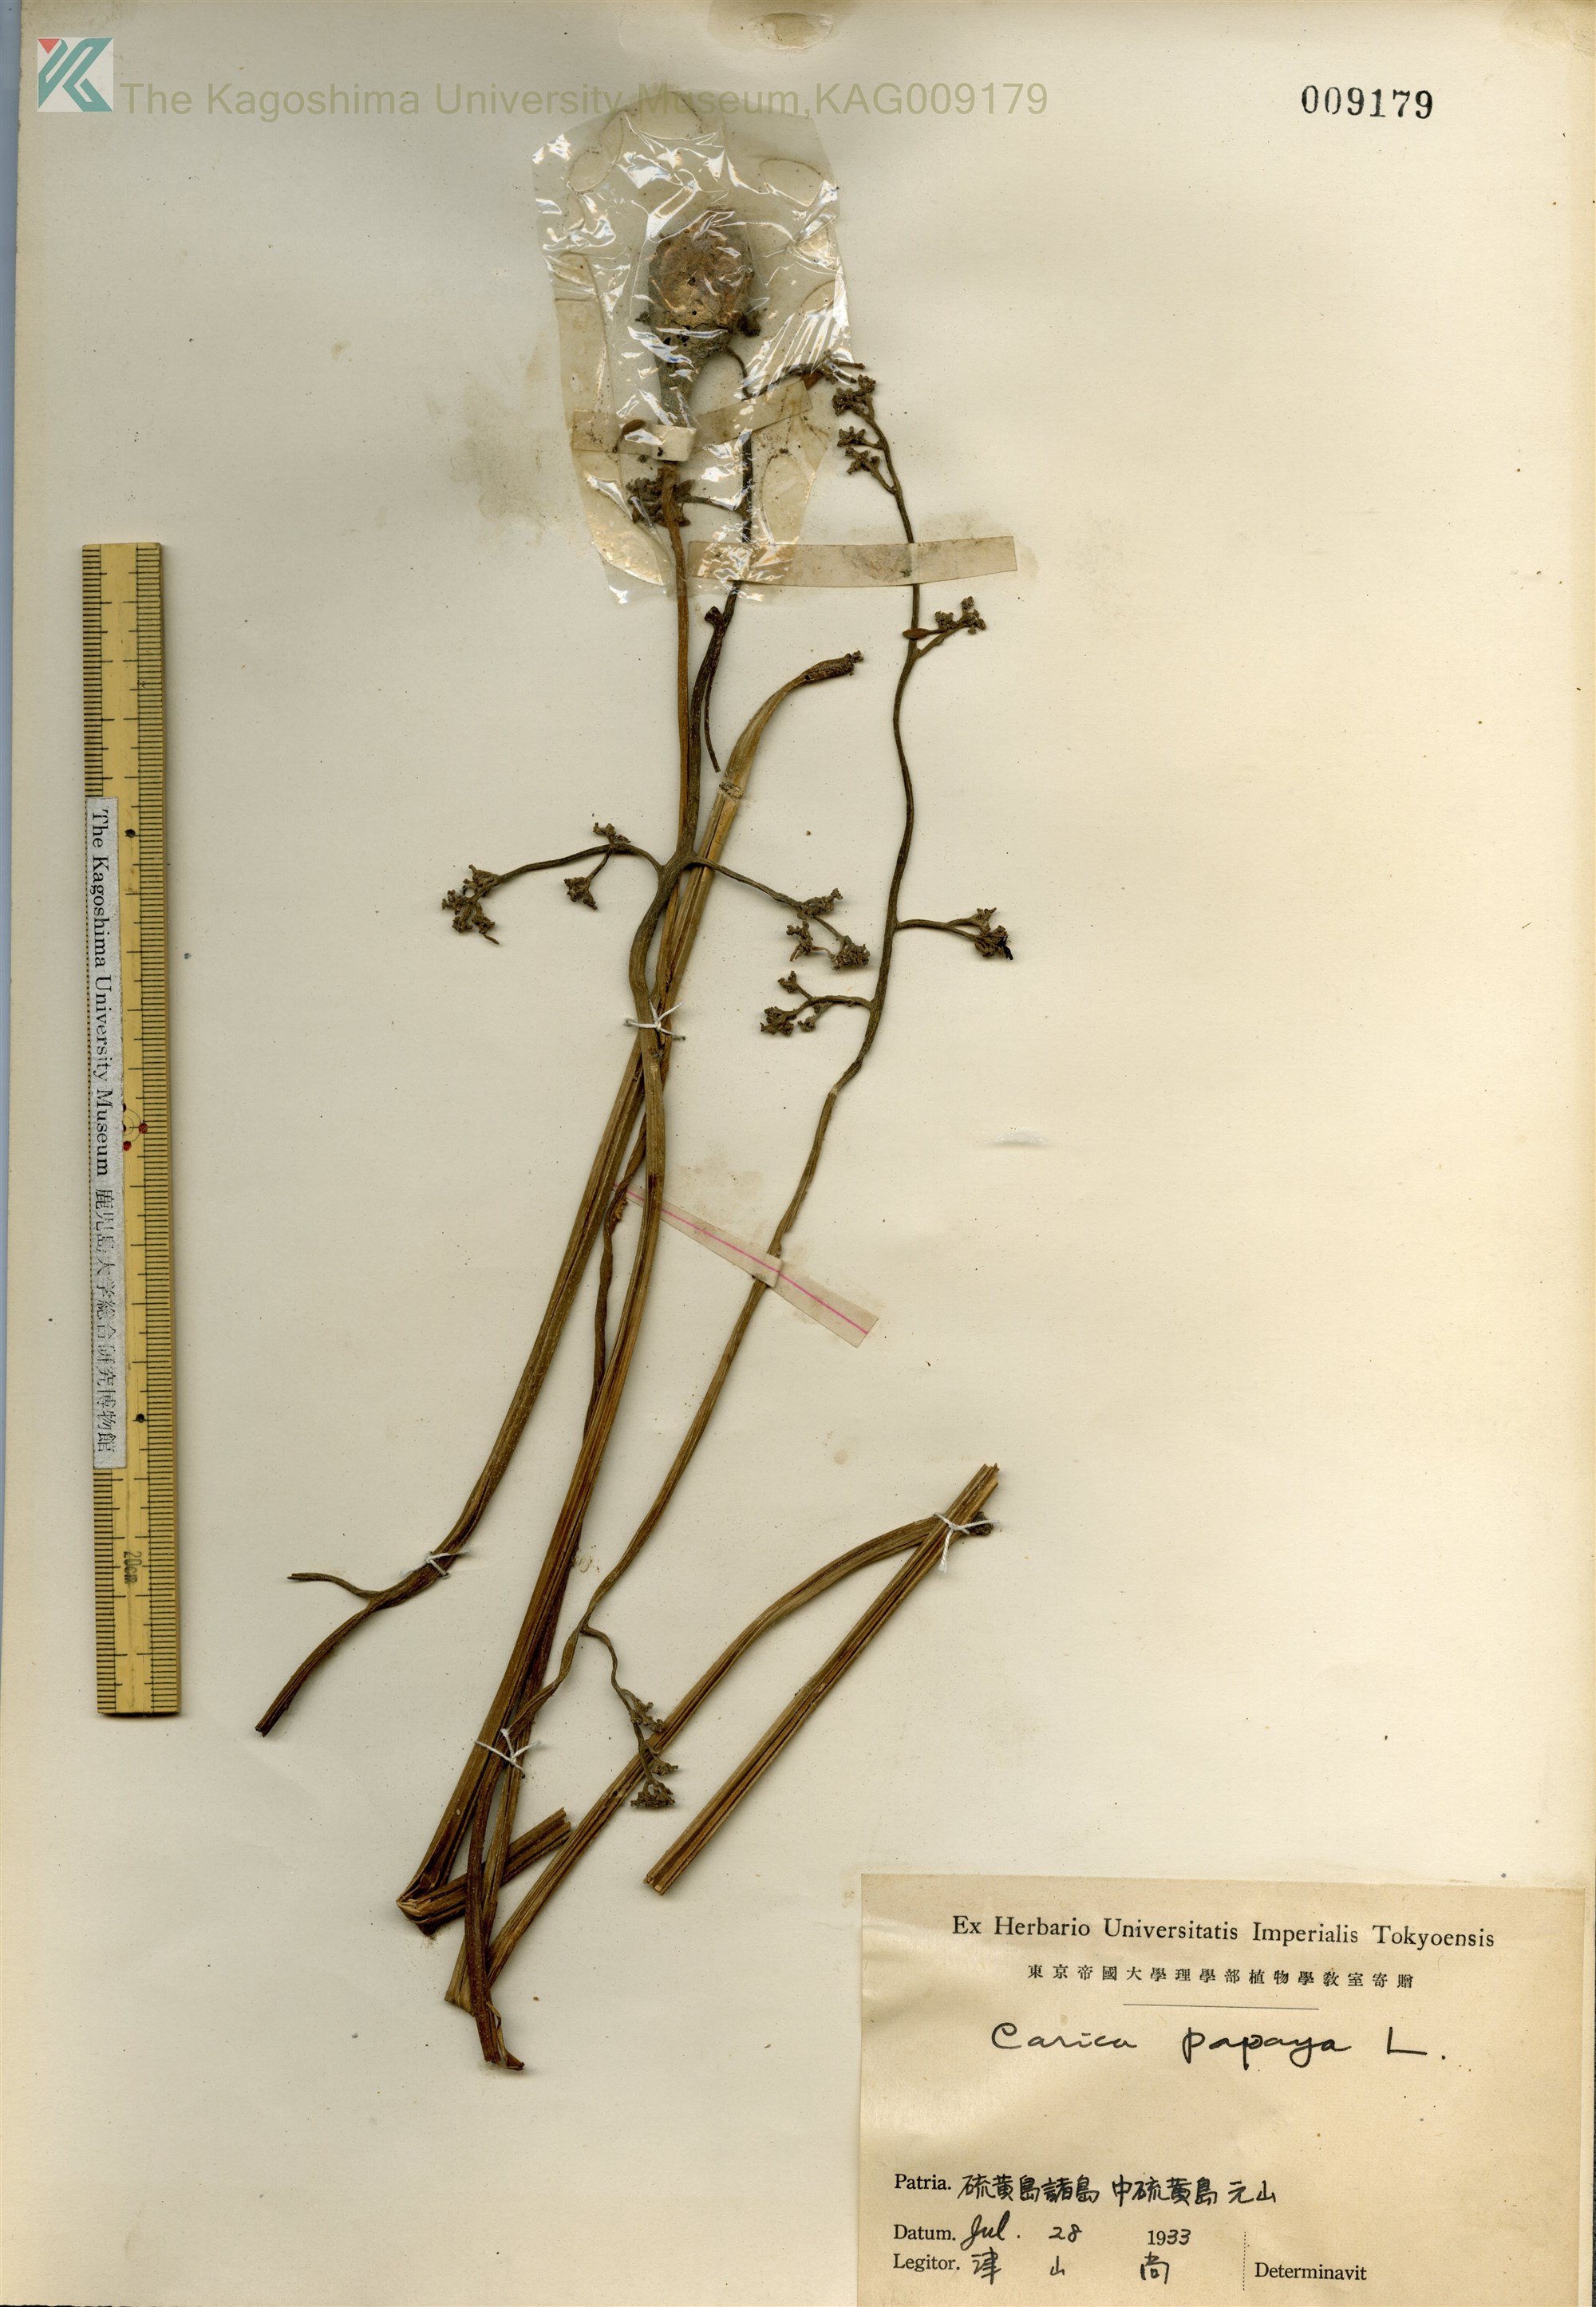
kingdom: Plantae
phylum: Tracheophyta
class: Magnoliopsida
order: Brassicales
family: Caricaceae
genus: Carica
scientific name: Carica papaya
